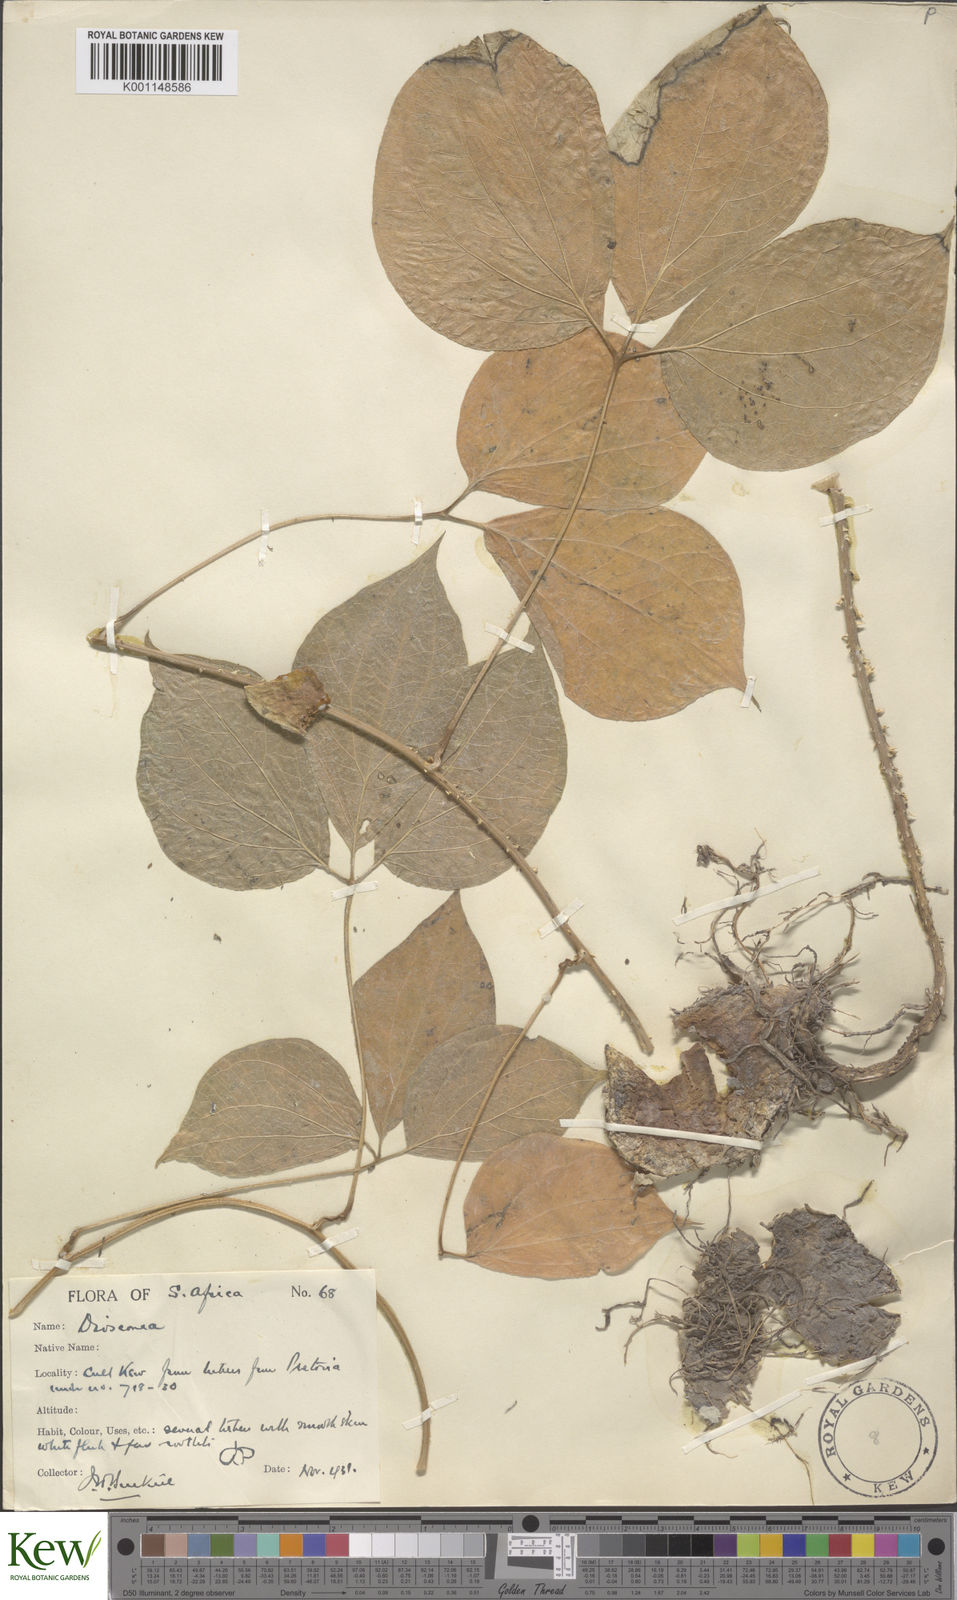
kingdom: Plantae
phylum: Tracheophyta
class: Liliopsida
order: Dioscoreales
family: Dioscoreaceae
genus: Dioscorea
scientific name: Dioscorea dregeana
